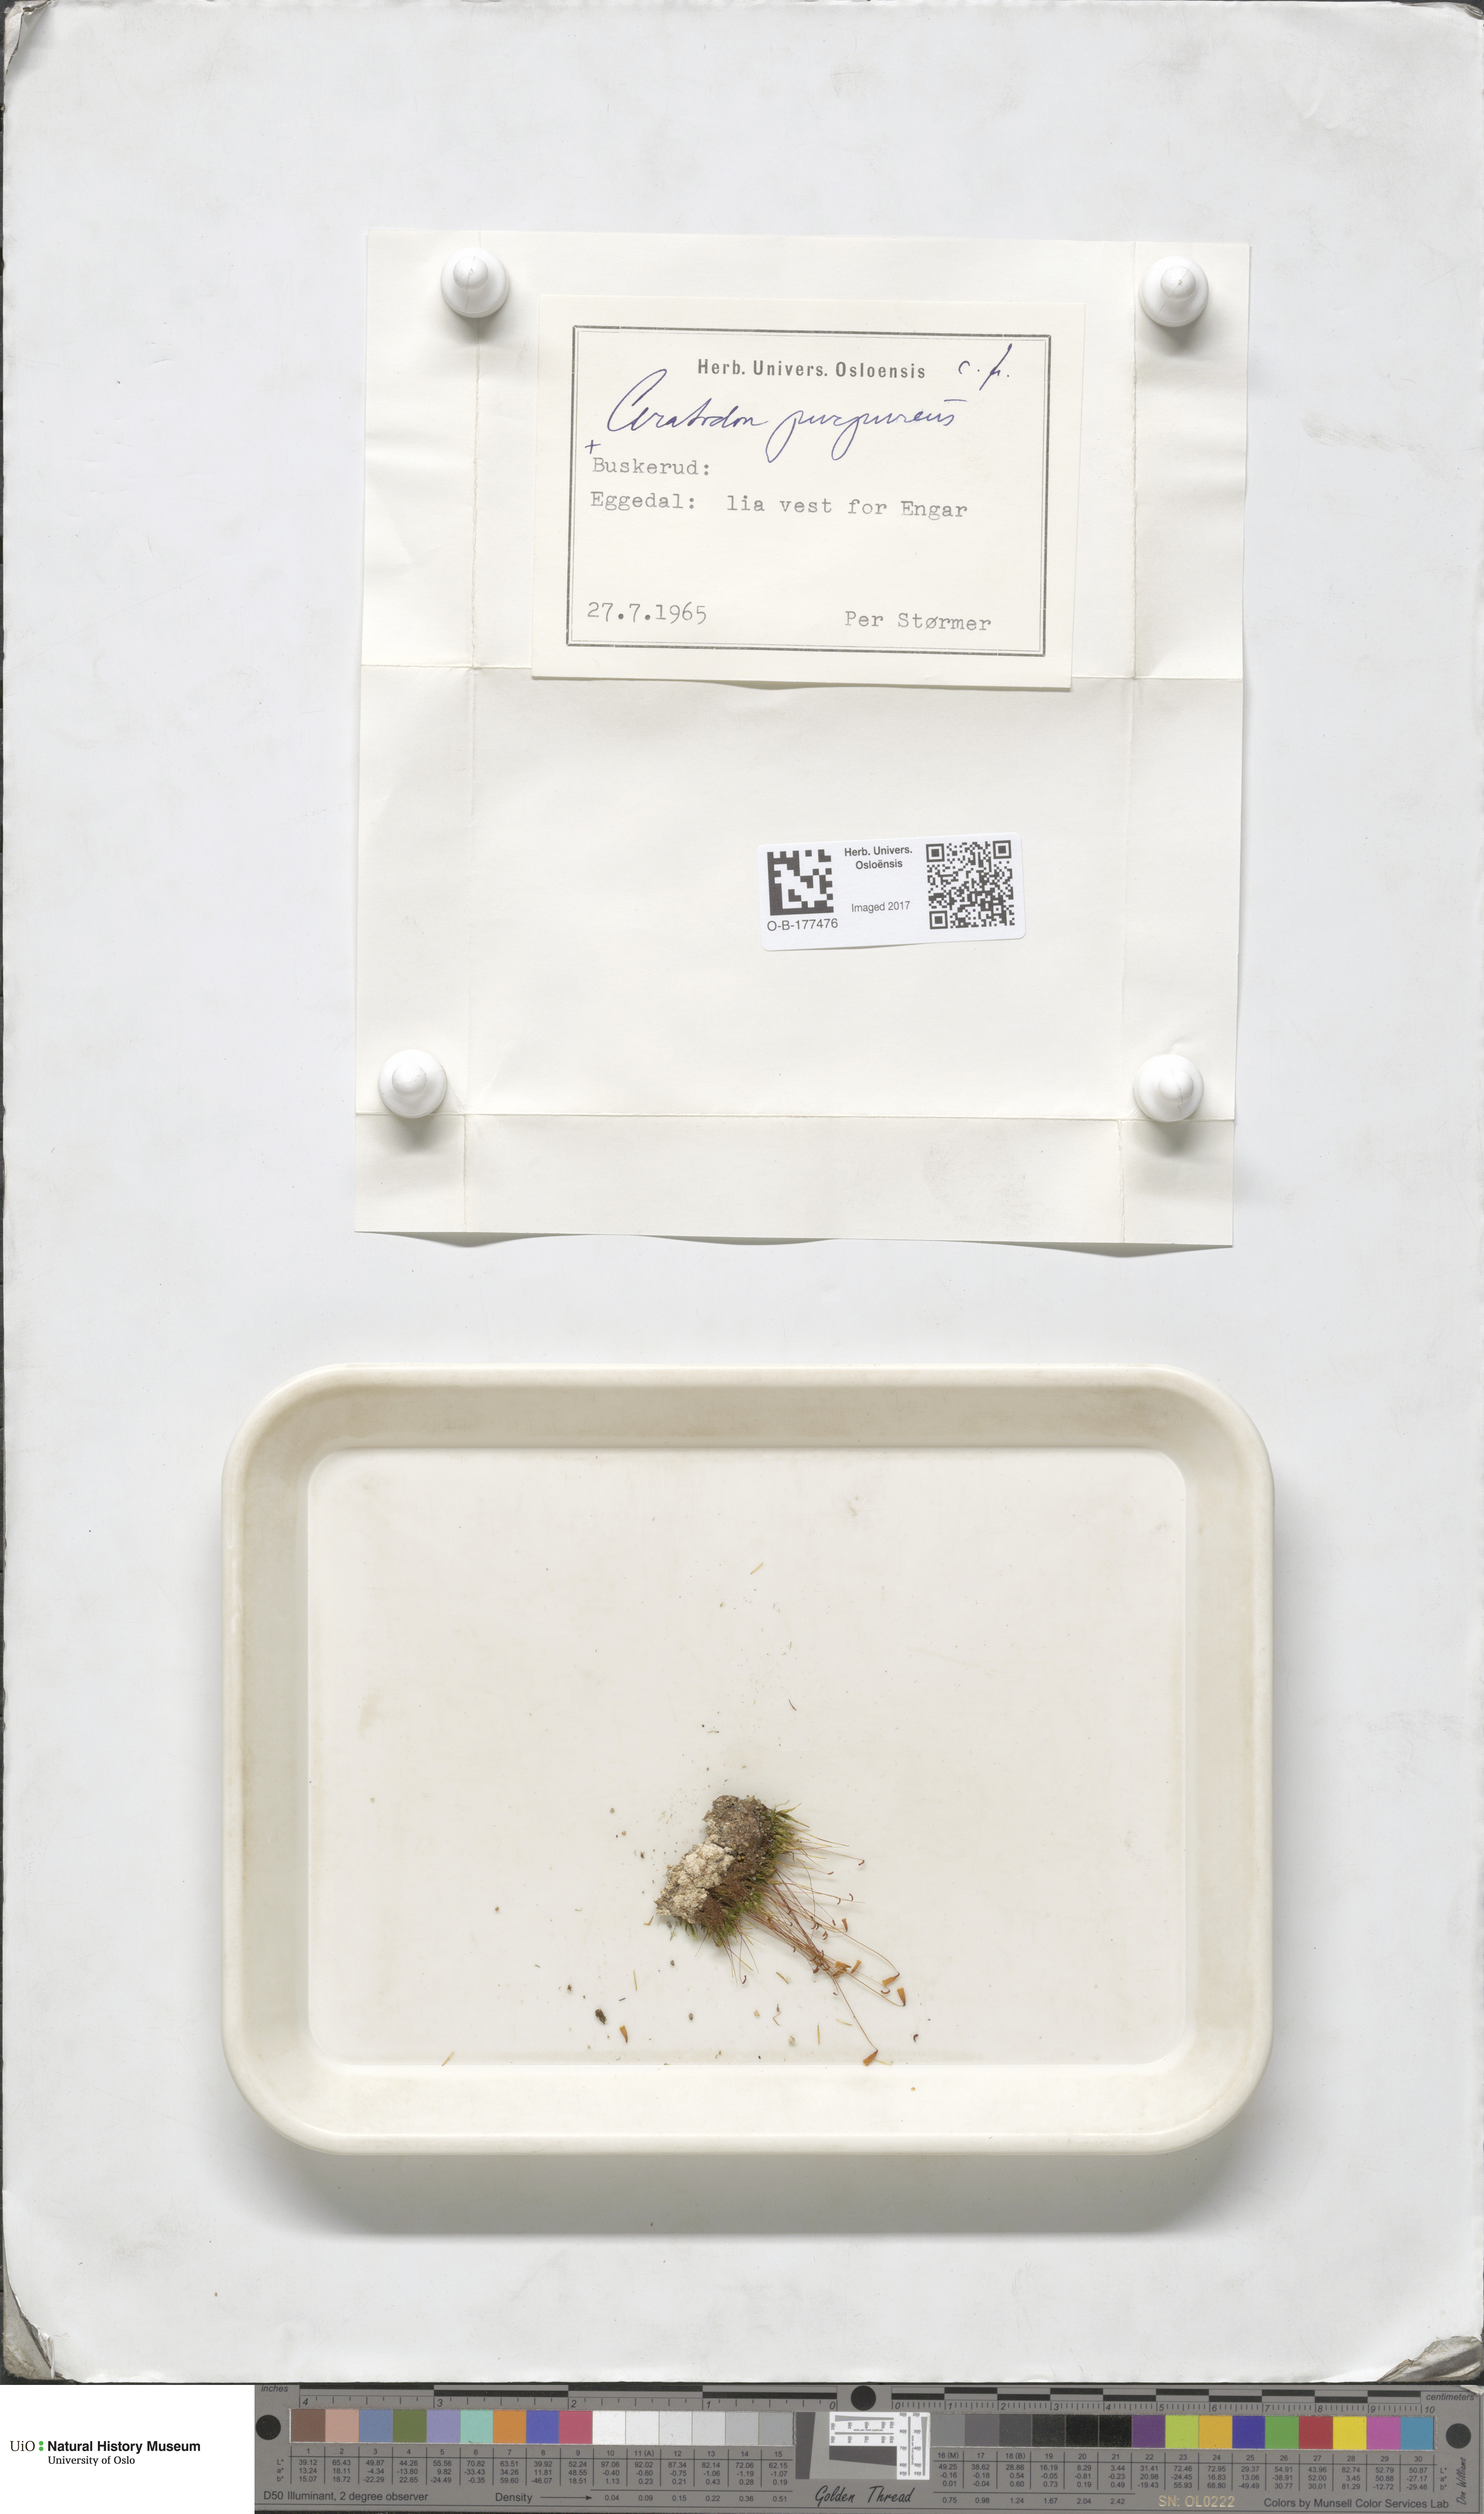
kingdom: Plantae
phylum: Bryophyta
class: Bryopsida
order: Dicranales
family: Ditrichaceae
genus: Ceratodon
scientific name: Ceratodon purpureus
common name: Redshank
